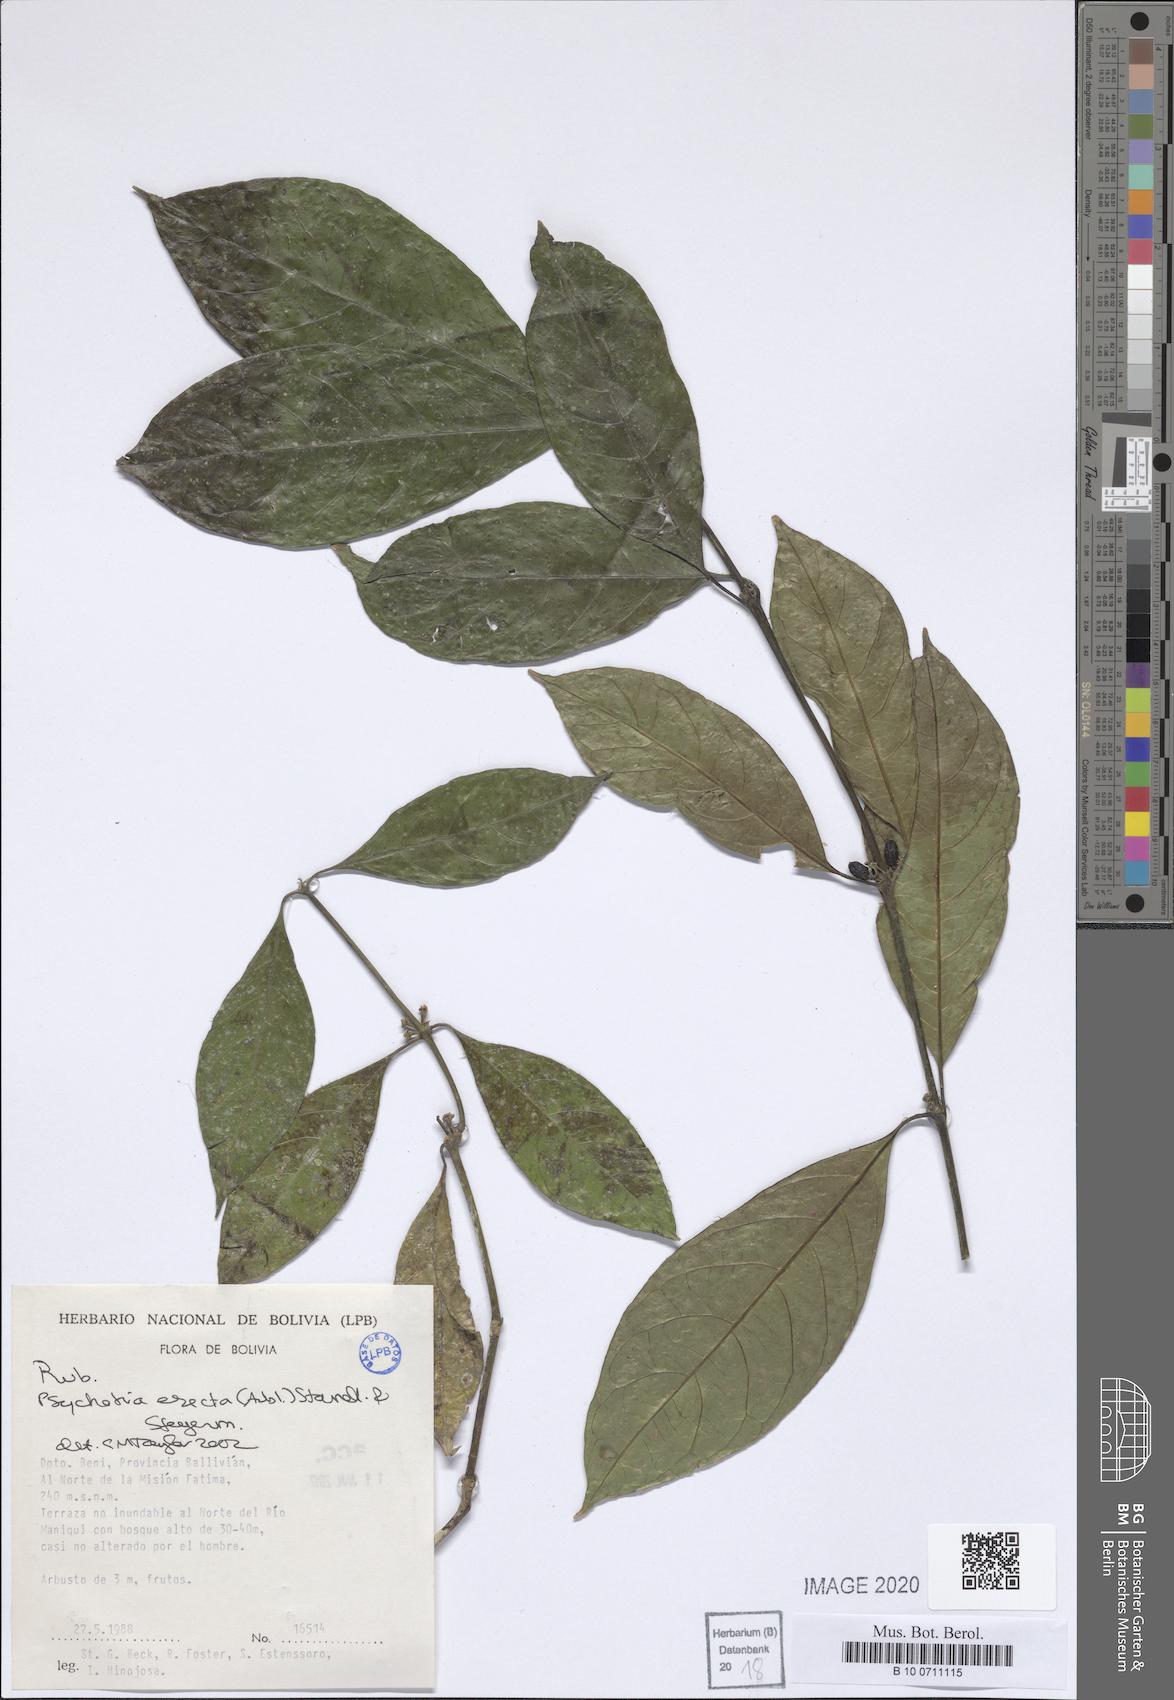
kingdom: Plantae
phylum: Tracheophyta
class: Magnoliopsida
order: Gentianales
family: Rubiaceae
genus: Ronabea
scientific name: Ronabea latifolia
